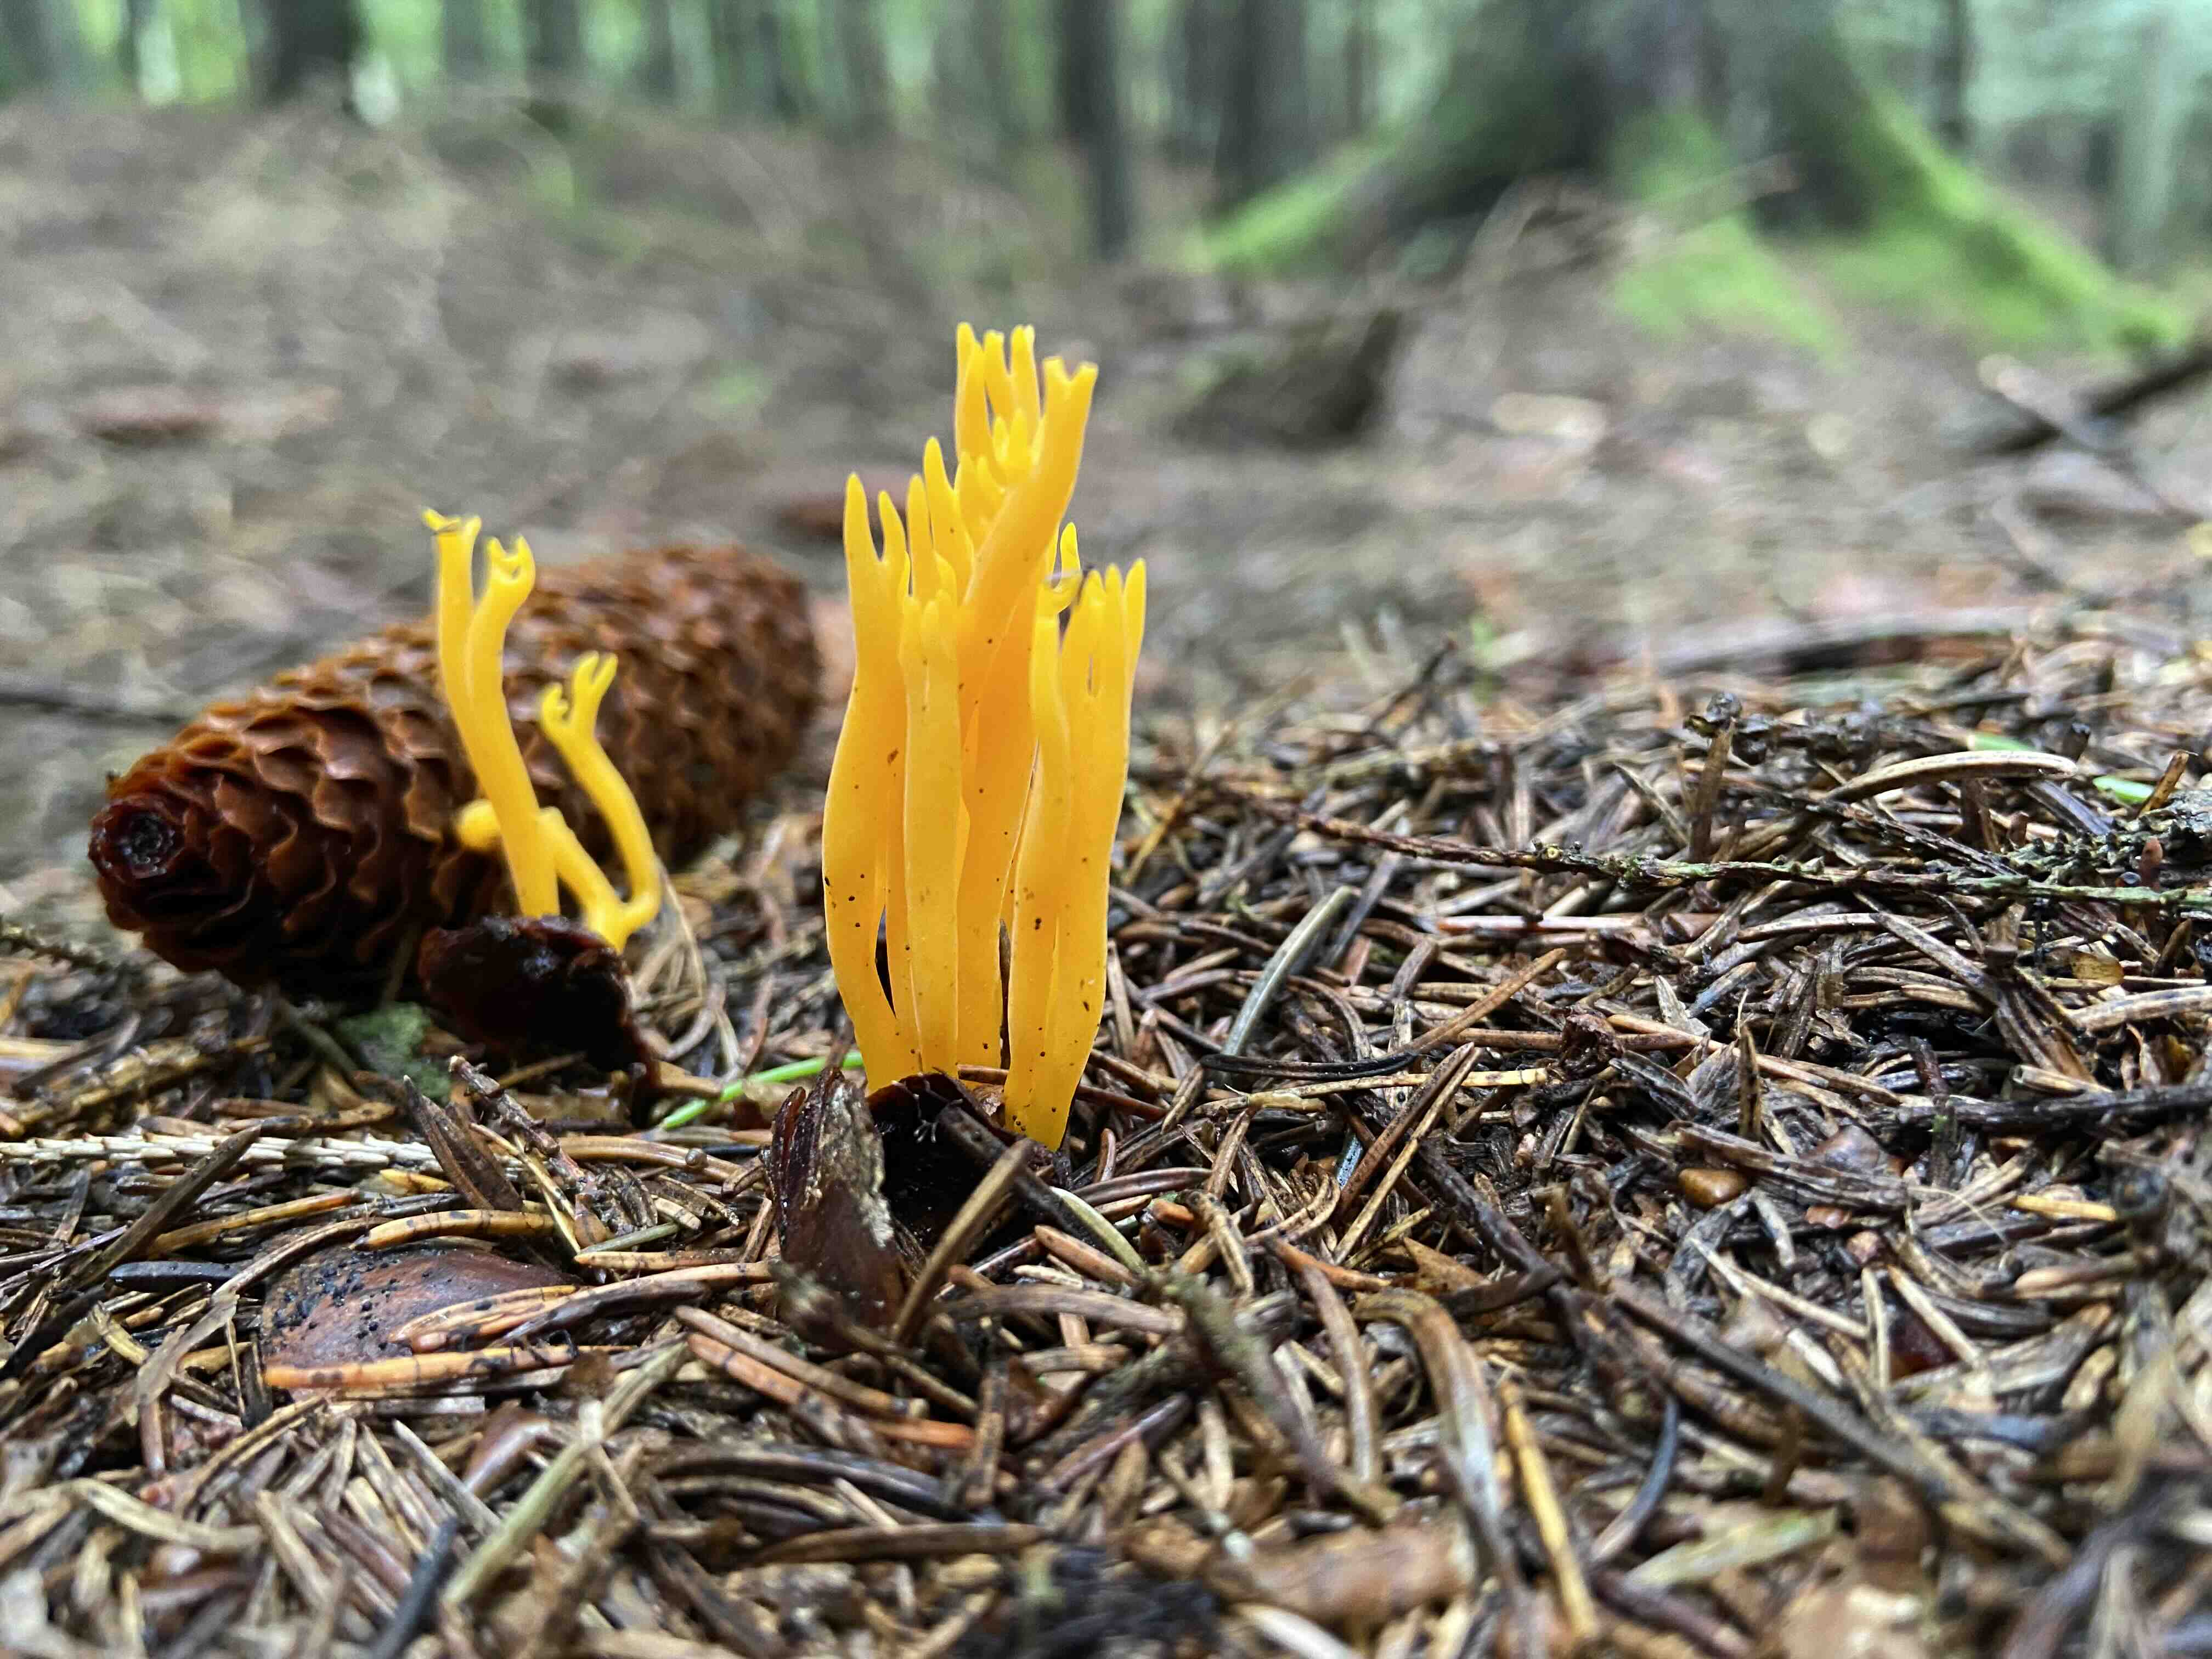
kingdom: Fungi
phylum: Basidiomycota
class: Dacrymycetes
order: Dacrymycetales
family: Dacrymycetaceae
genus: Calocera
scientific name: Calocera viscosa
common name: almindelig guldgaffel
